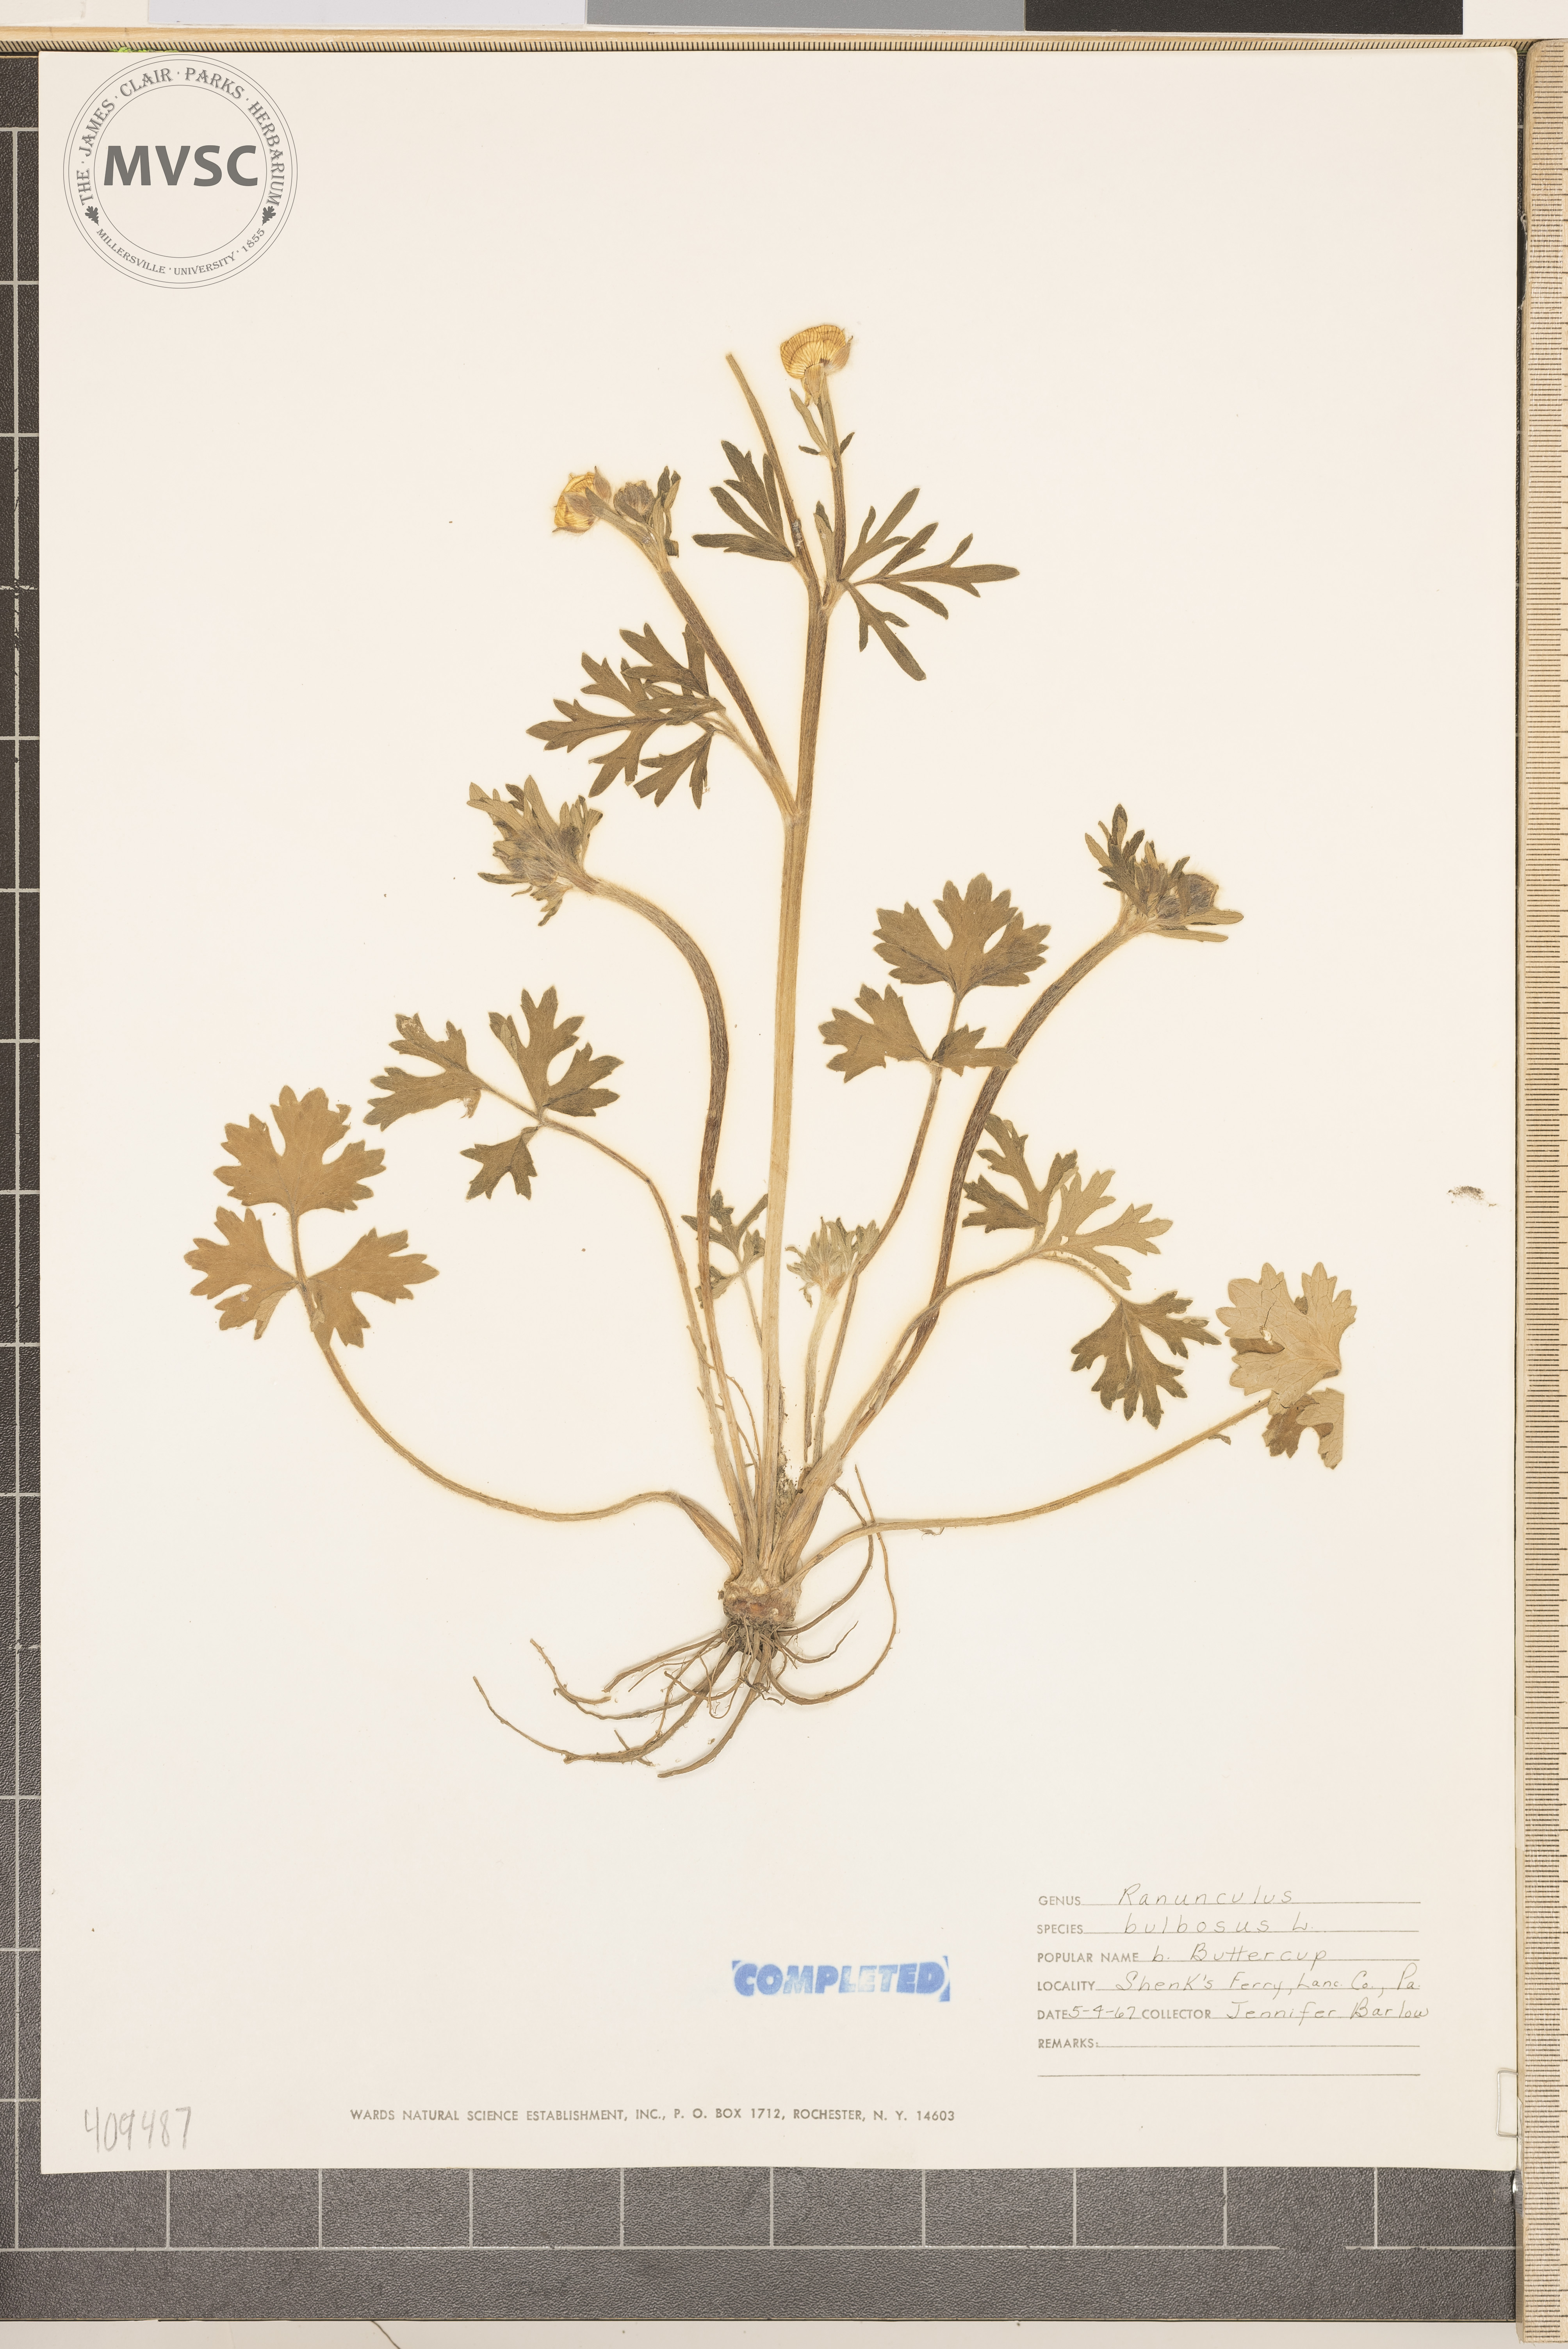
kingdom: Plantae
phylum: Tracheophyta
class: Magnoliopsida
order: Ranunculales
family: Ranunculaceae
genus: Ranunculus
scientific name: Ranunculus bulbosus
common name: Bulbous buttercup
